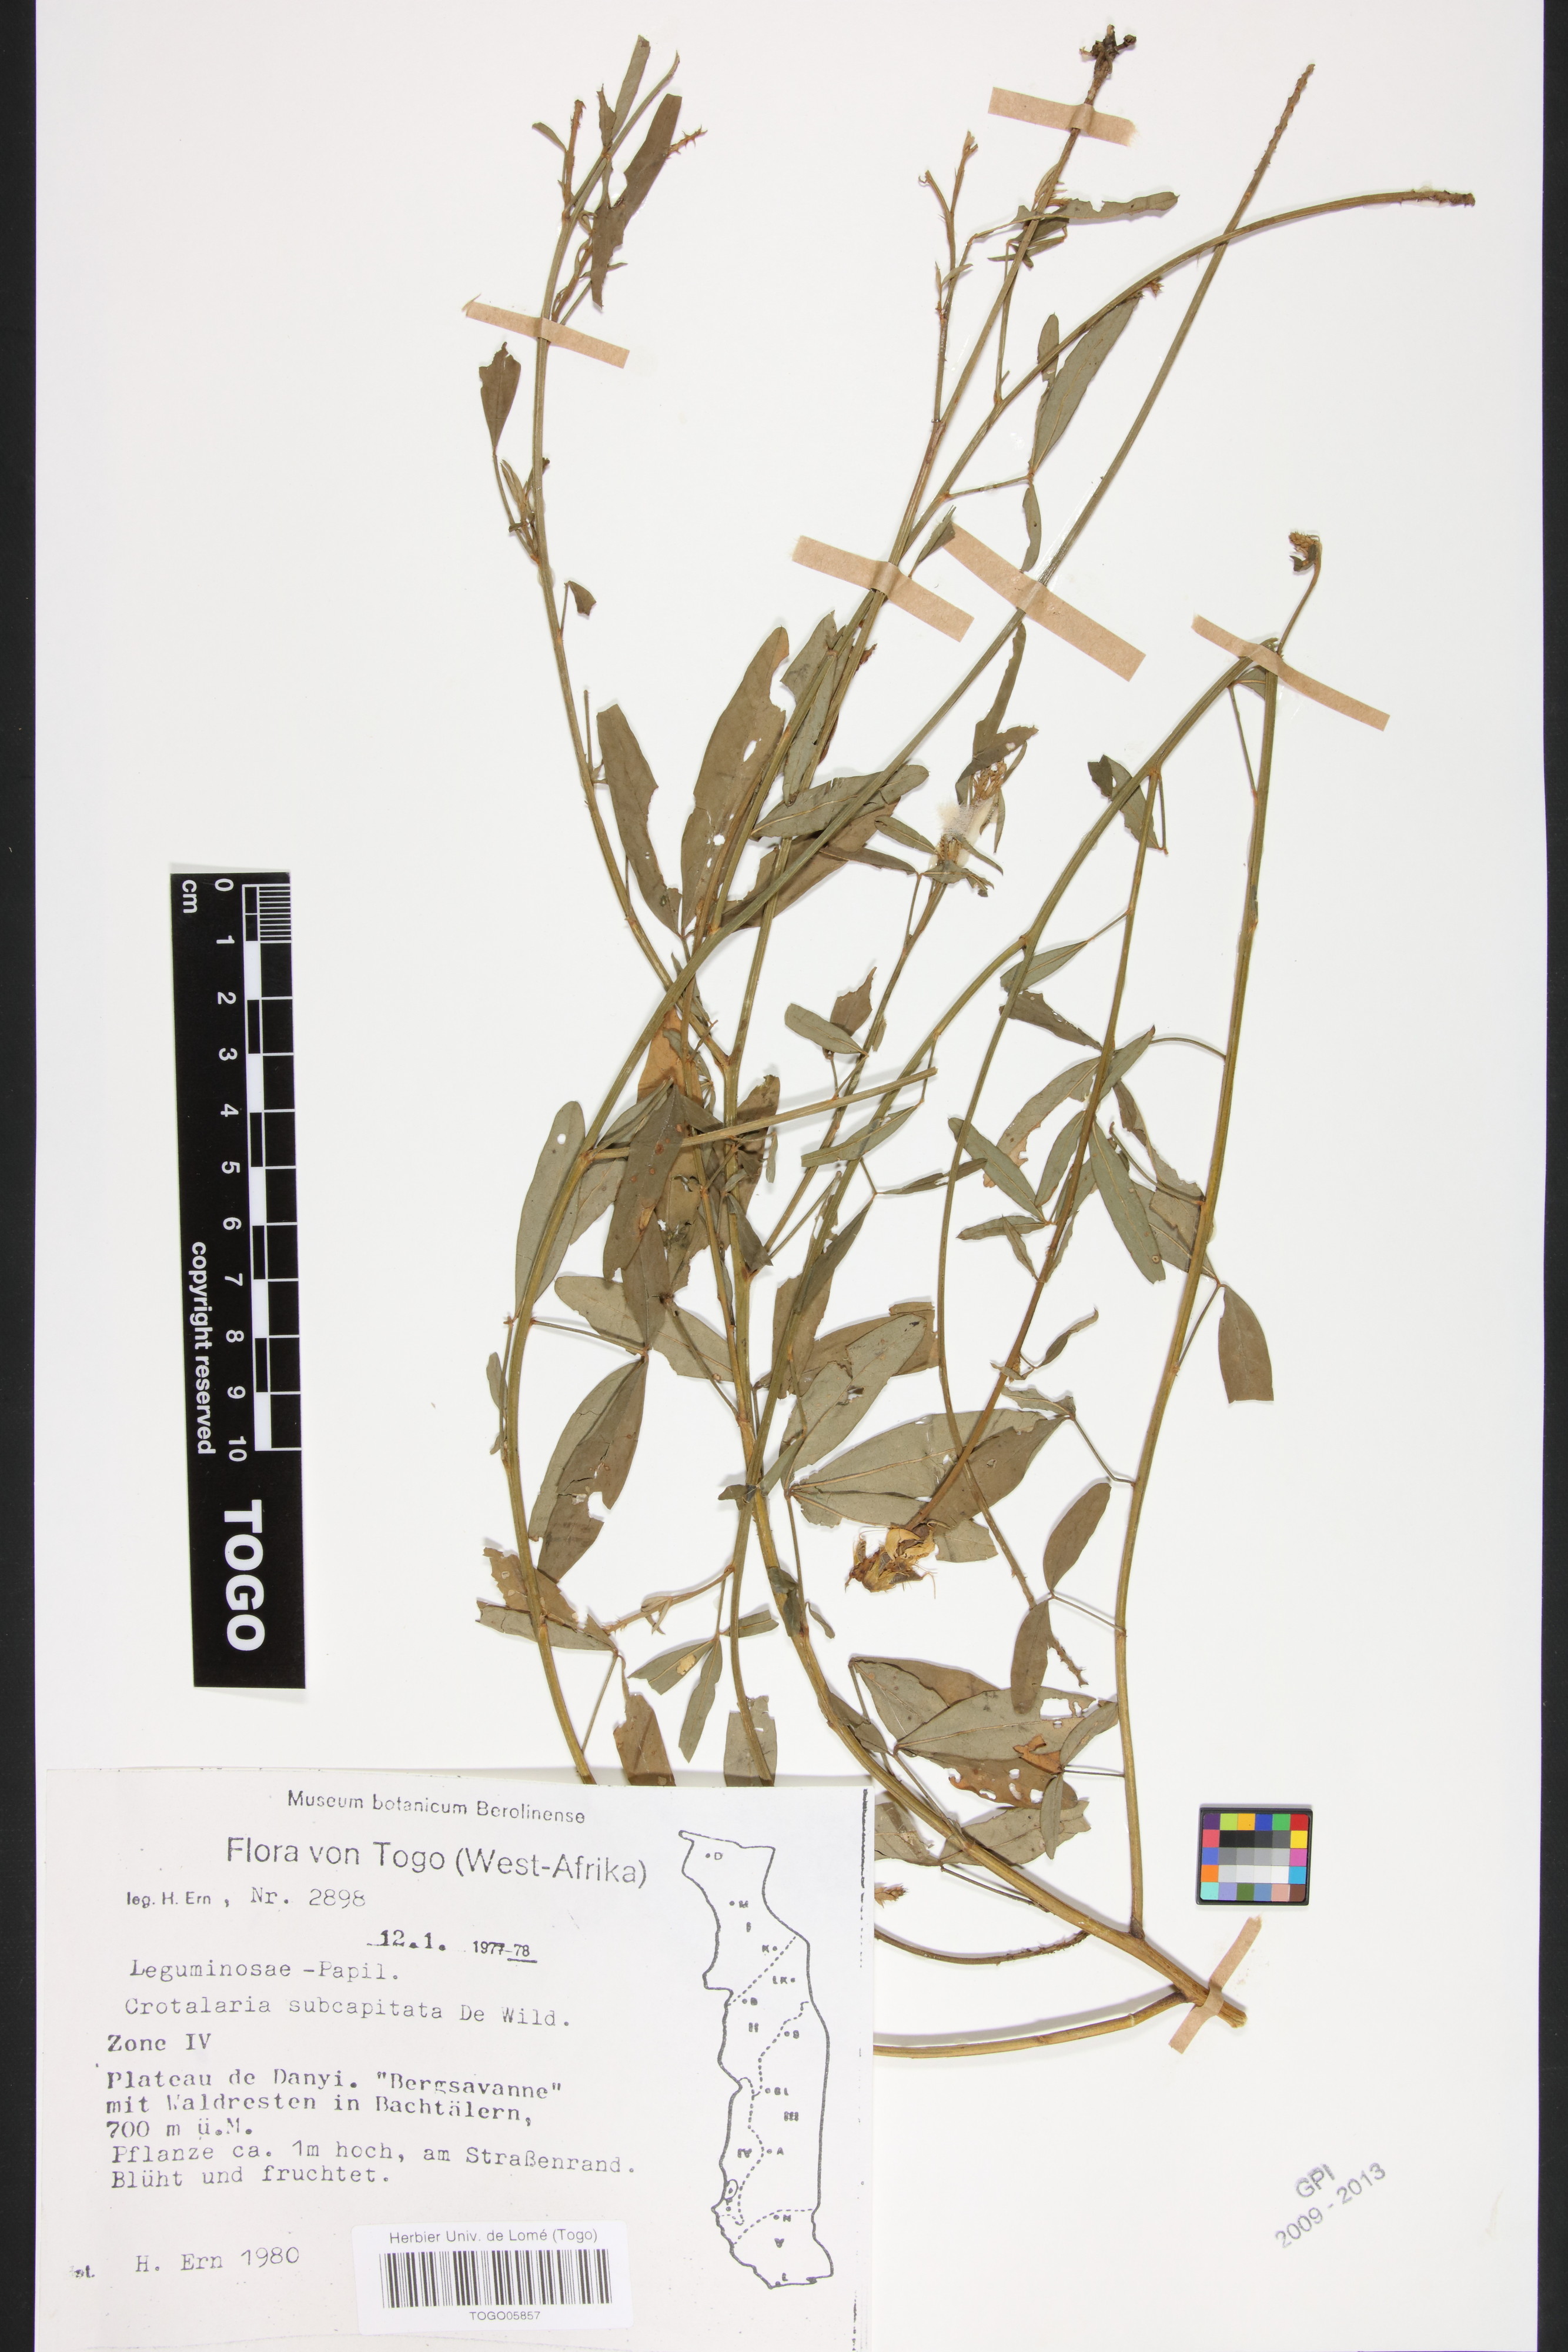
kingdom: Plantae
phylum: Tracheophyta
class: Magnoliopsida
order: Fabales
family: Fabaceae
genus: Crotalaria
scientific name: Crotalaria retusa
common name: Rattleweed
